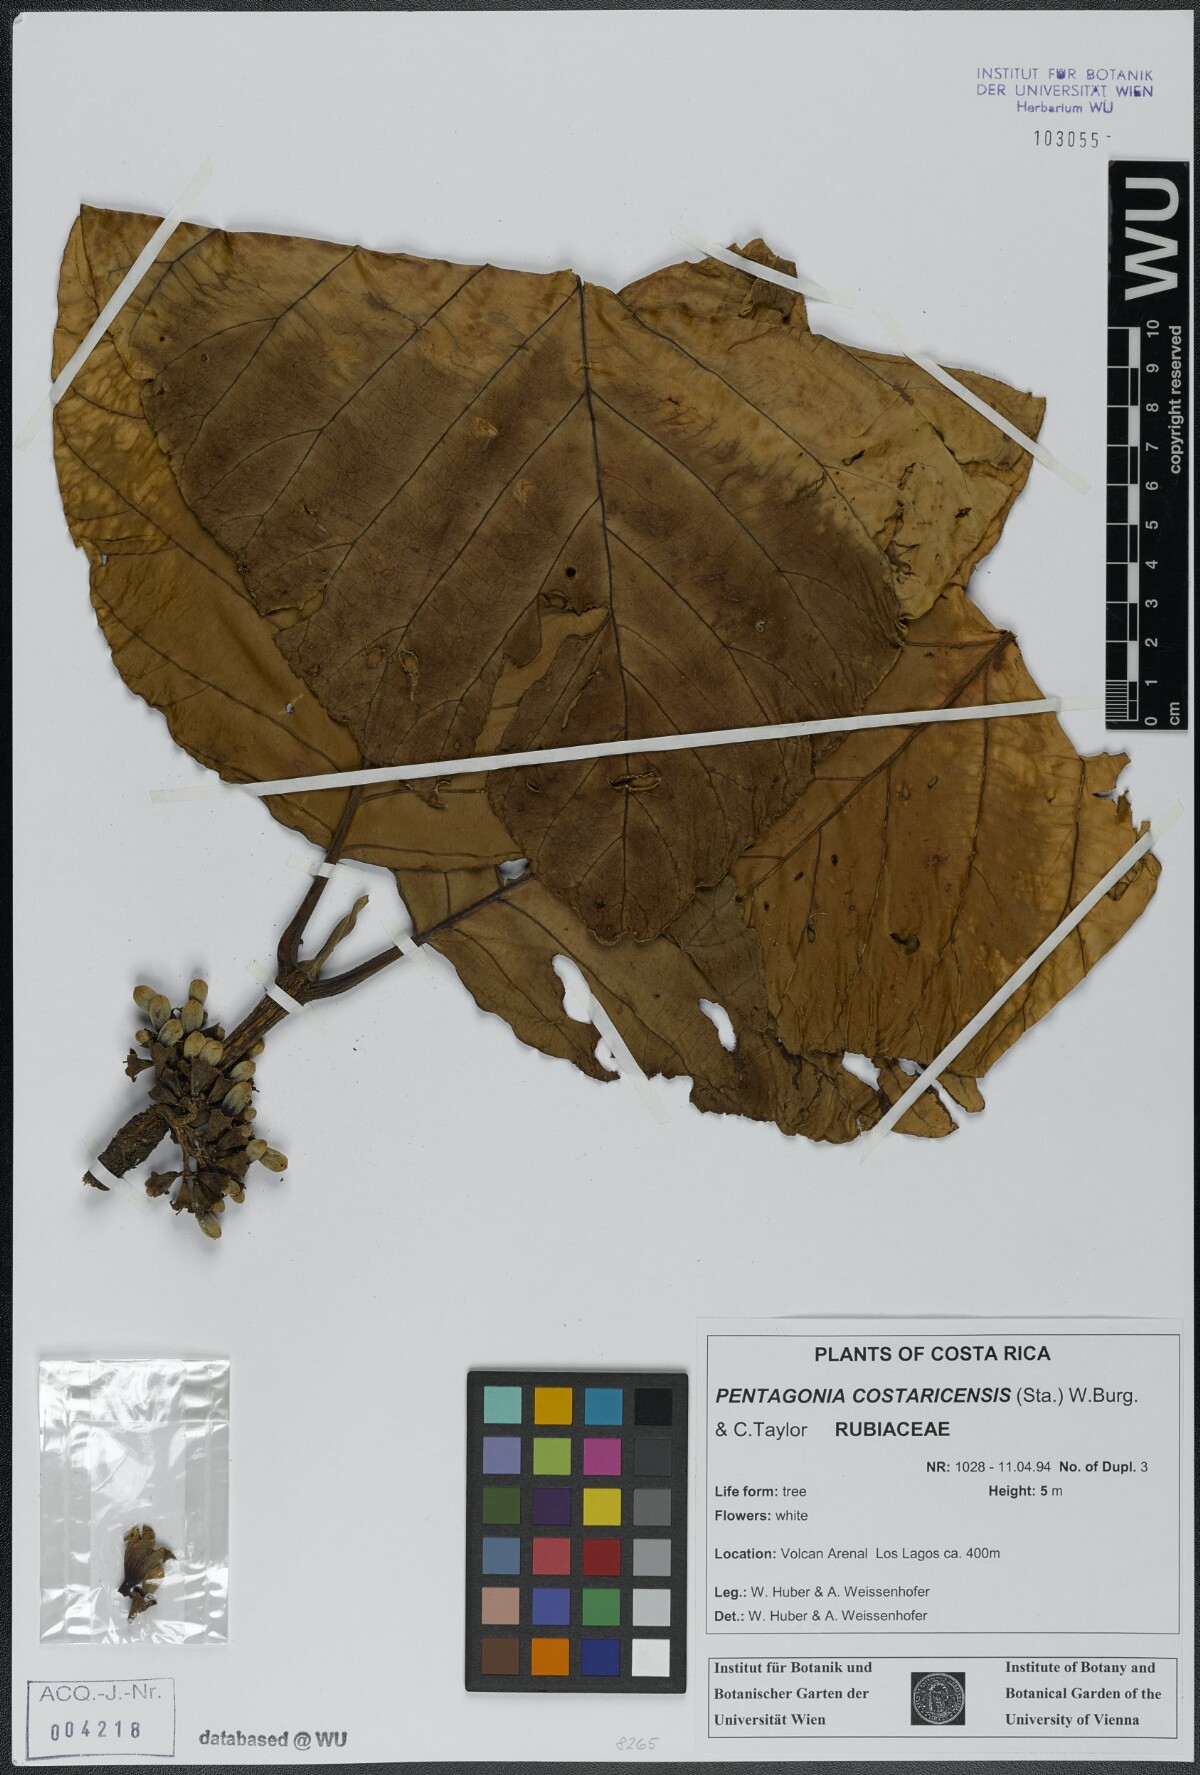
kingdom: Plantae
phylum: Tracheophyta
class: Magnoliopsida
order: Gentianales
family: Rubiaceae
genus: Pentagonia
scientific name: Pentagonia costaricensis
